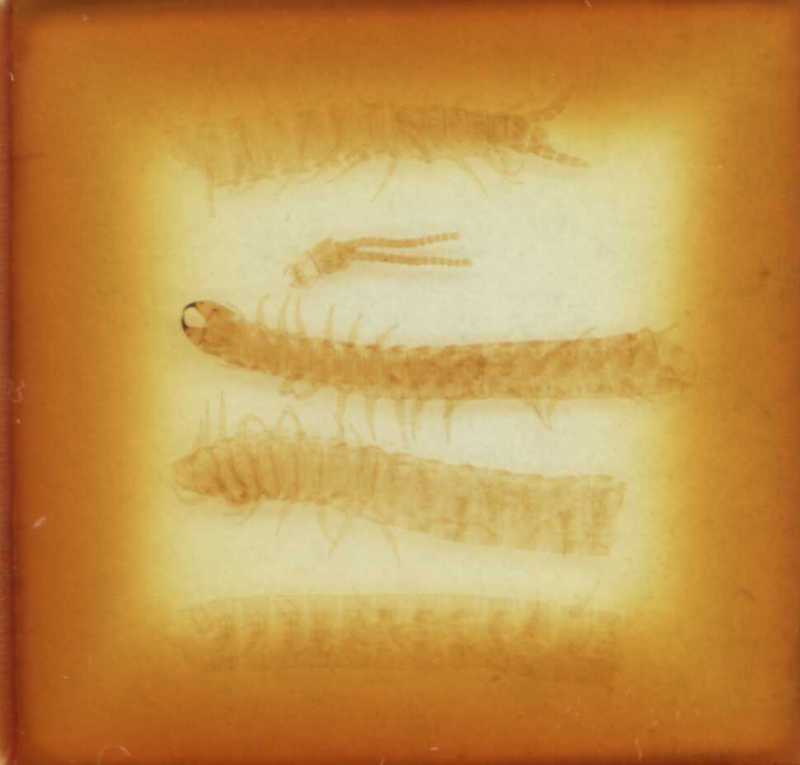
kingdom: Animalia
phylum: Arthropoda
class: Chilopoda
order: Geophilomorpha
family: Geophilidae
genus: Geophilus
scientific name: Geophilus carpophagus
